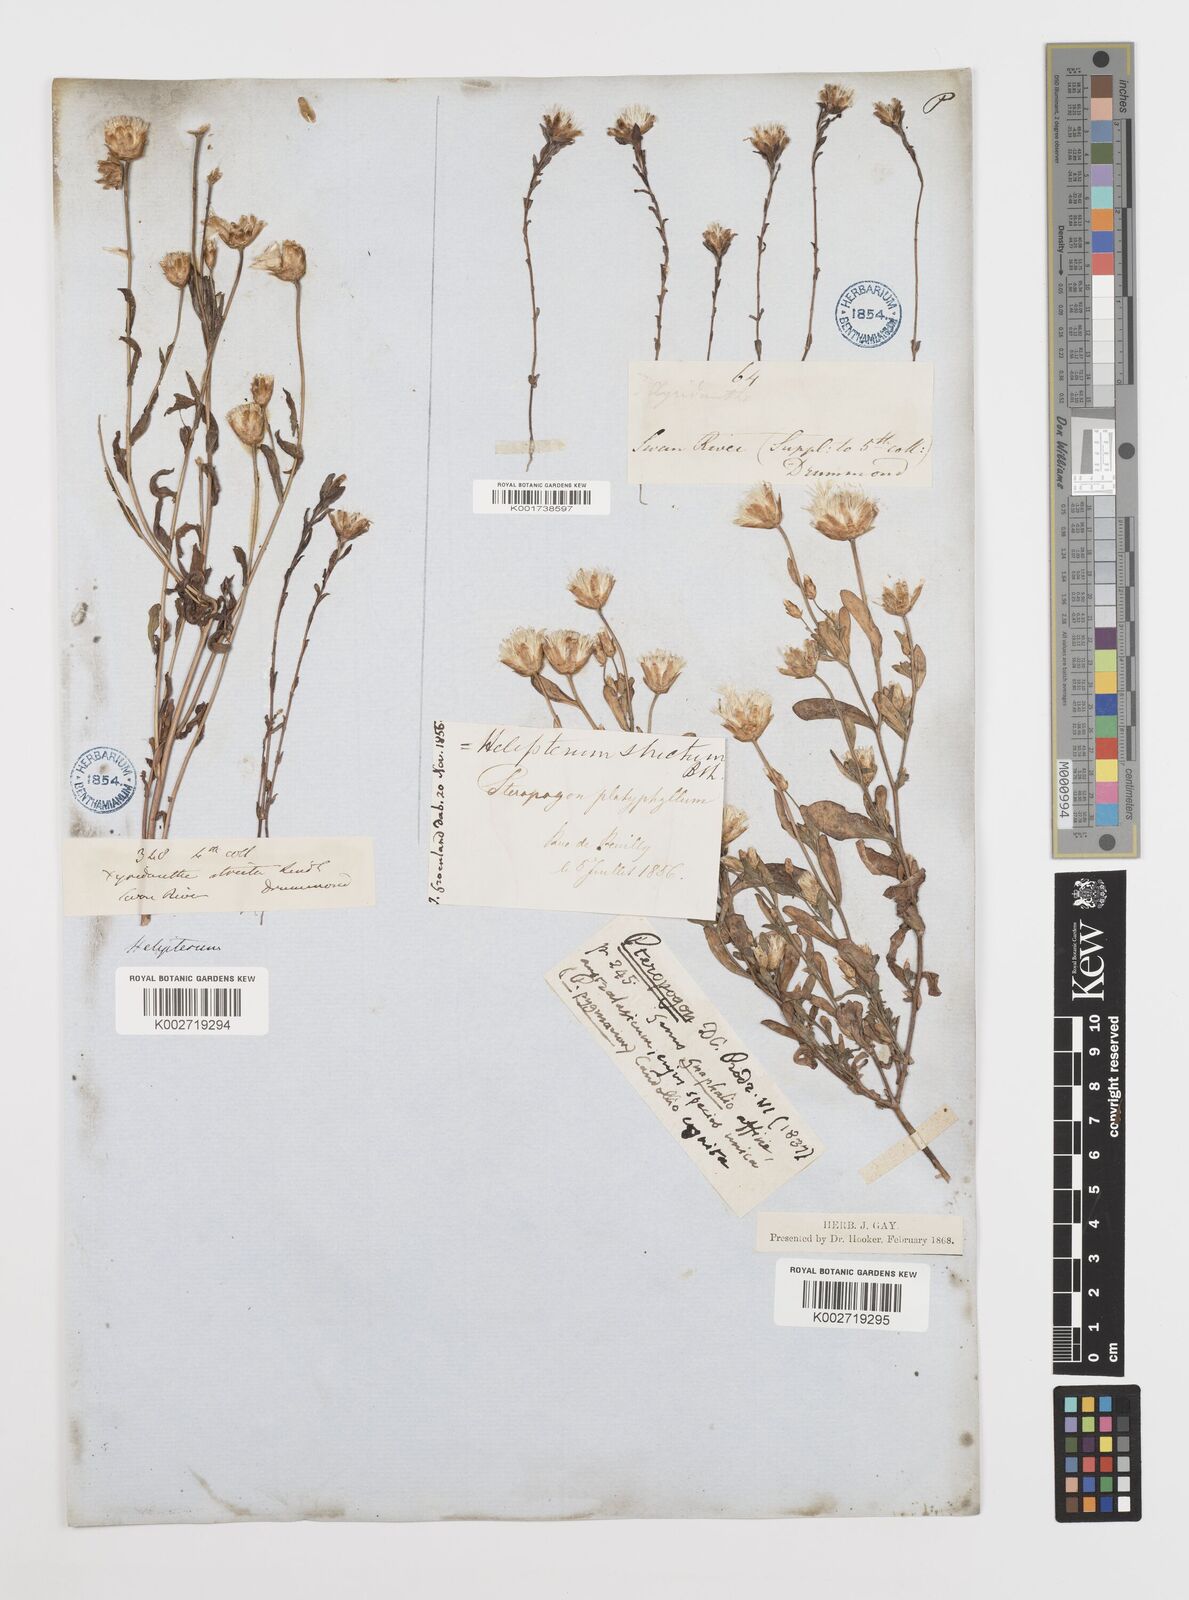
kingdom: Plantae
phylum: Tracheophyta
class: Magnoliopsida
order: Asterales
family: Asteraceae
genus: Rhodanthe
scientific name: Rhodanthe stricta
